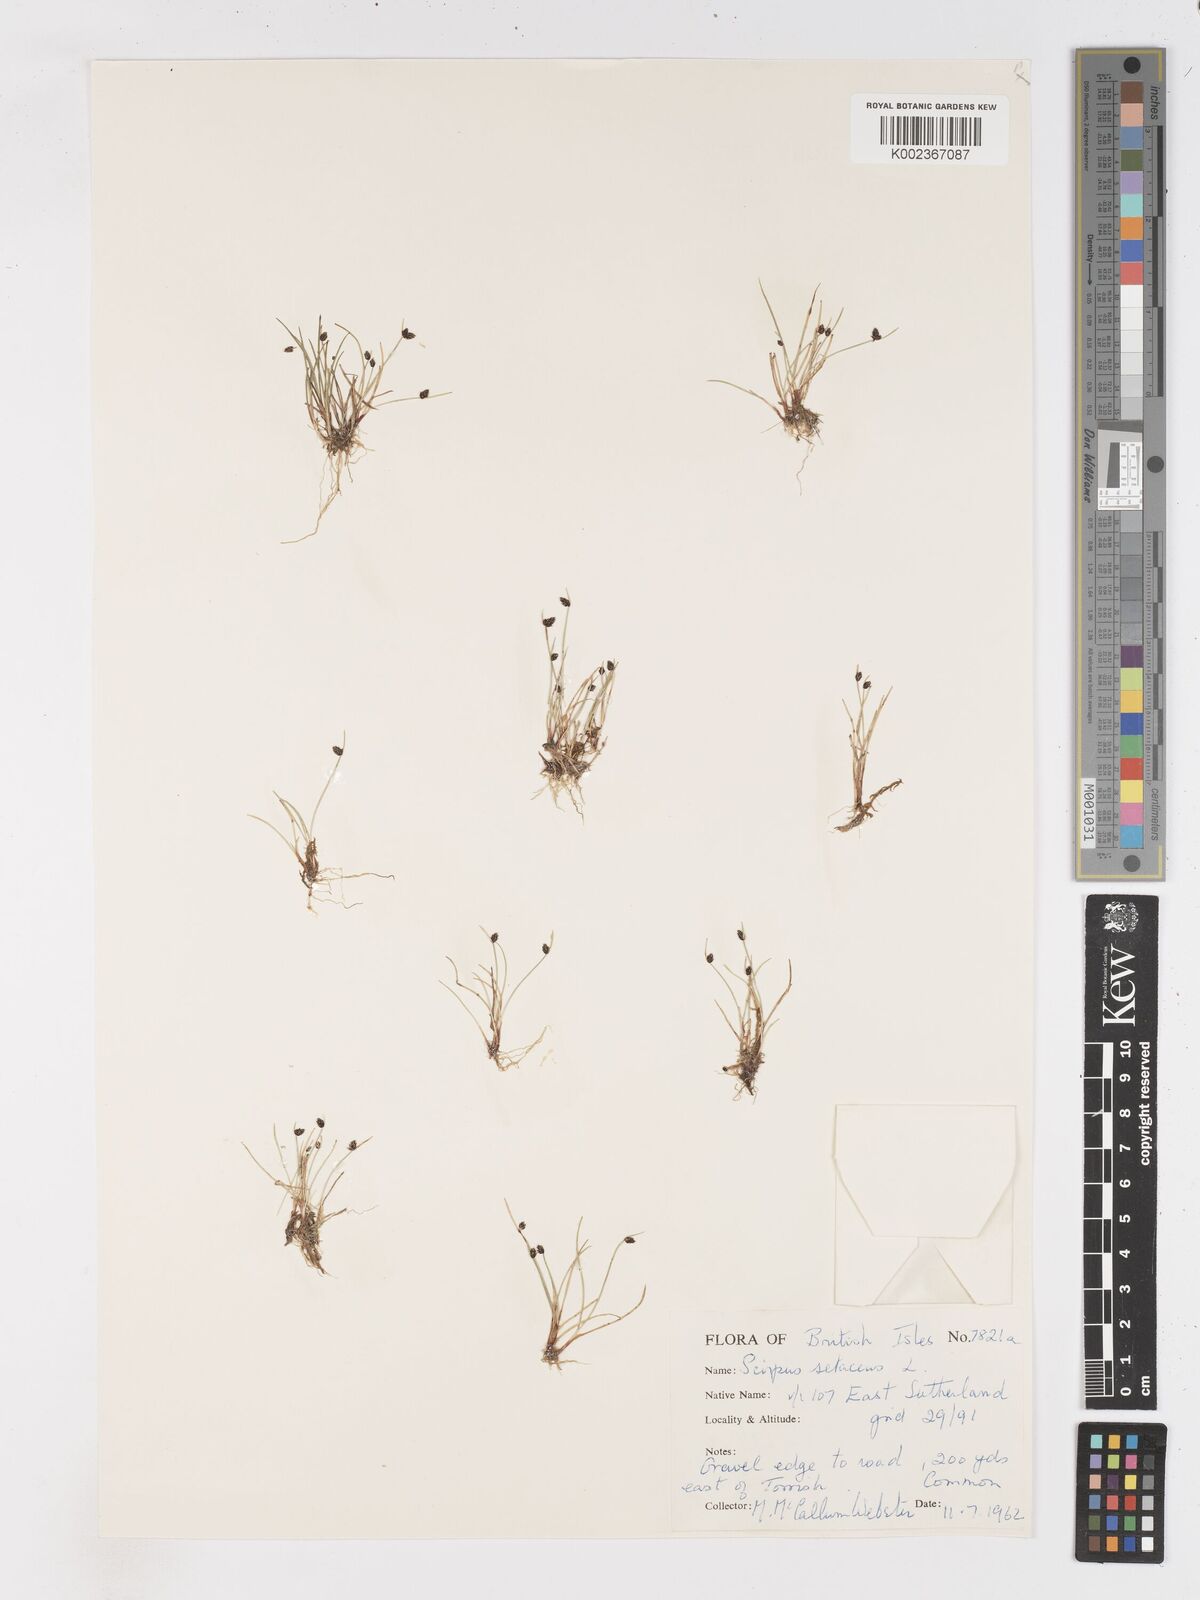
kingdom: Plantae
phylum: Tracheophyta
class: Liliopsida
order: Poales
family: Cyperaceae
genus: Isolepis
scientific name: Isolepis setacea
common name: Bristle club-rush
